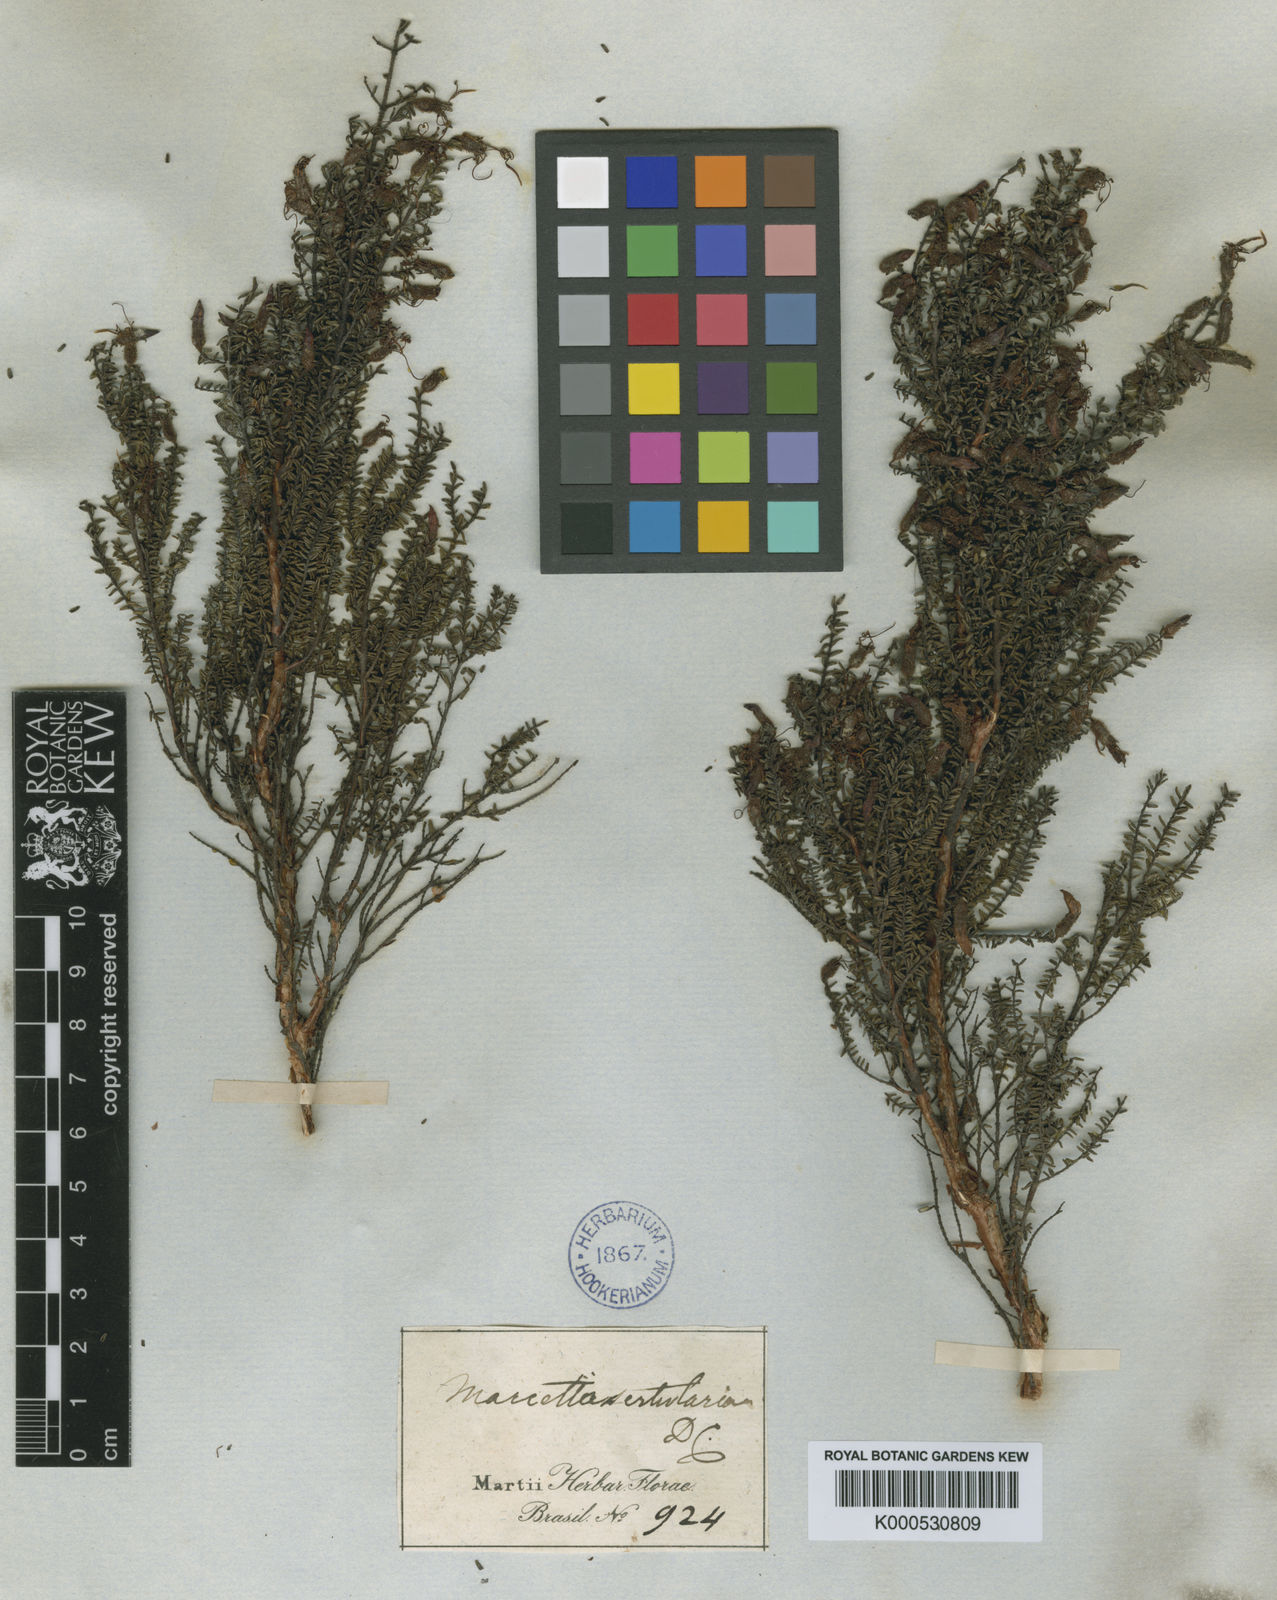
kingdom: Plantae
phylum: Tracheophyta
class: Magnoliopsida
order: Myrtales
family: Melastomataceae
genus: Fritzschia
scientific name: Fritzschia sertularia
